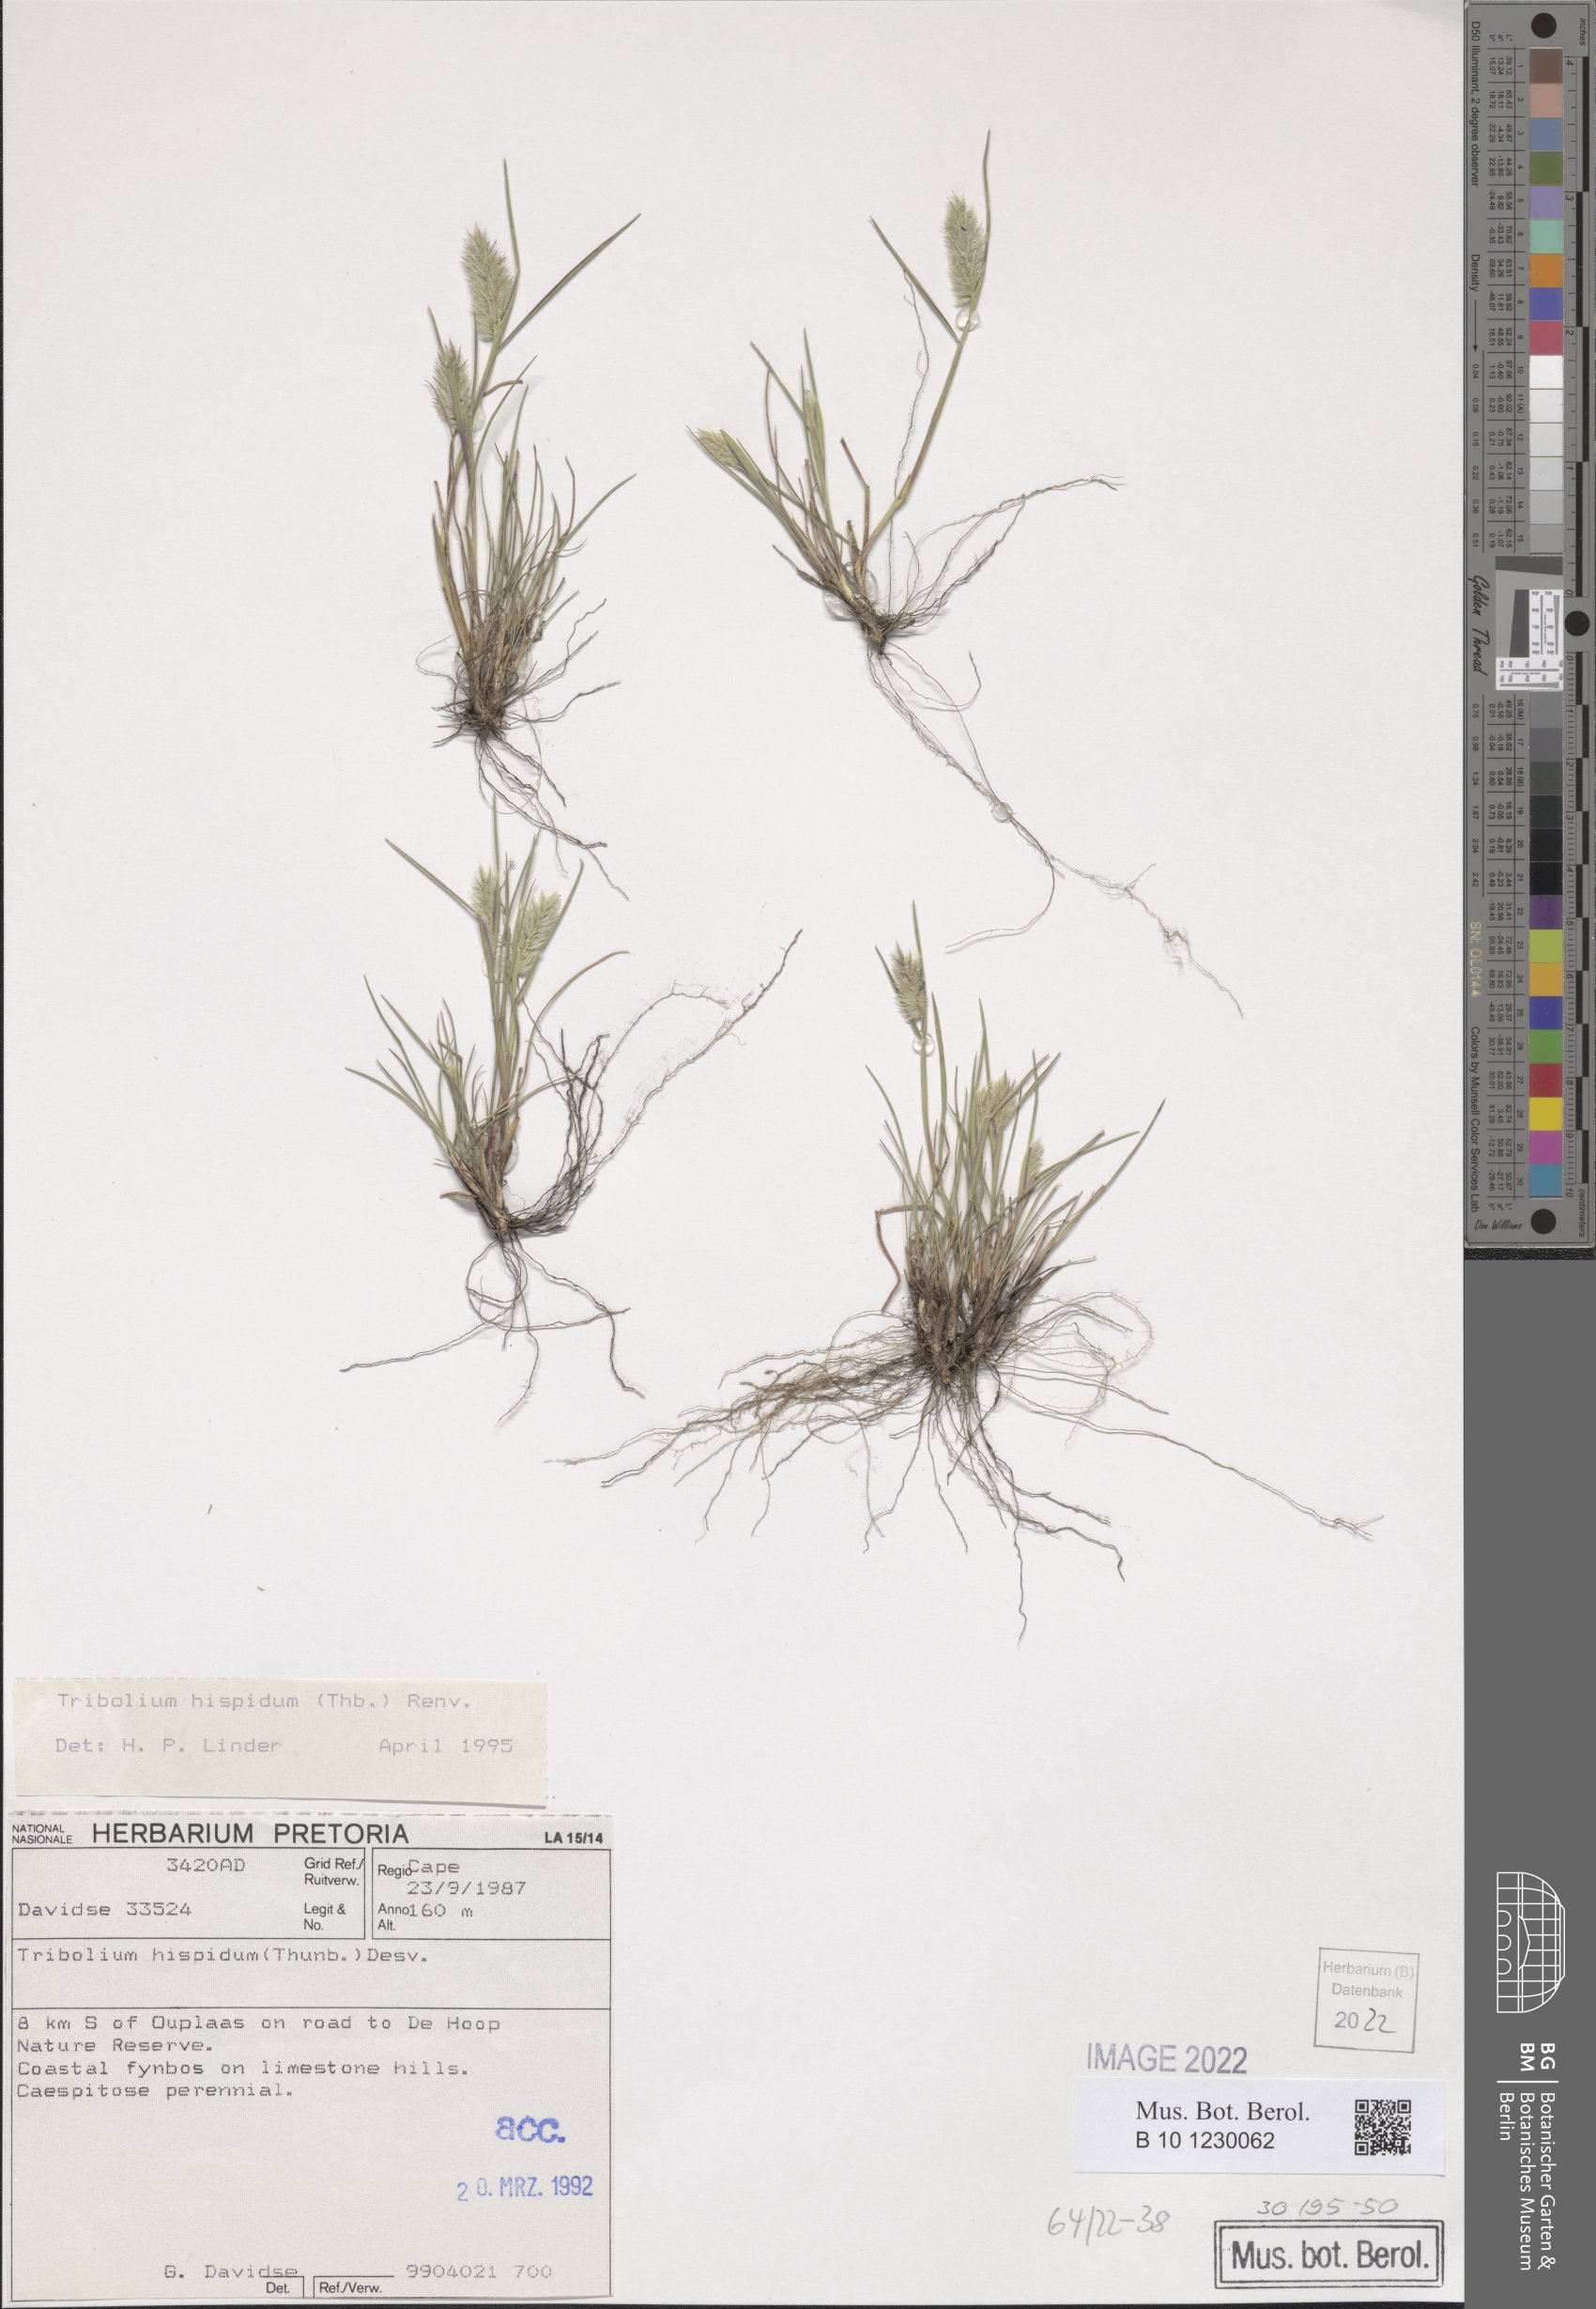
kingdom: Plantae
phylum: Tracheophyta
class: Liliopsida
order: Poales
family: Poaceae
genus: Tribolium
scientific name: Tribolium hispidum
